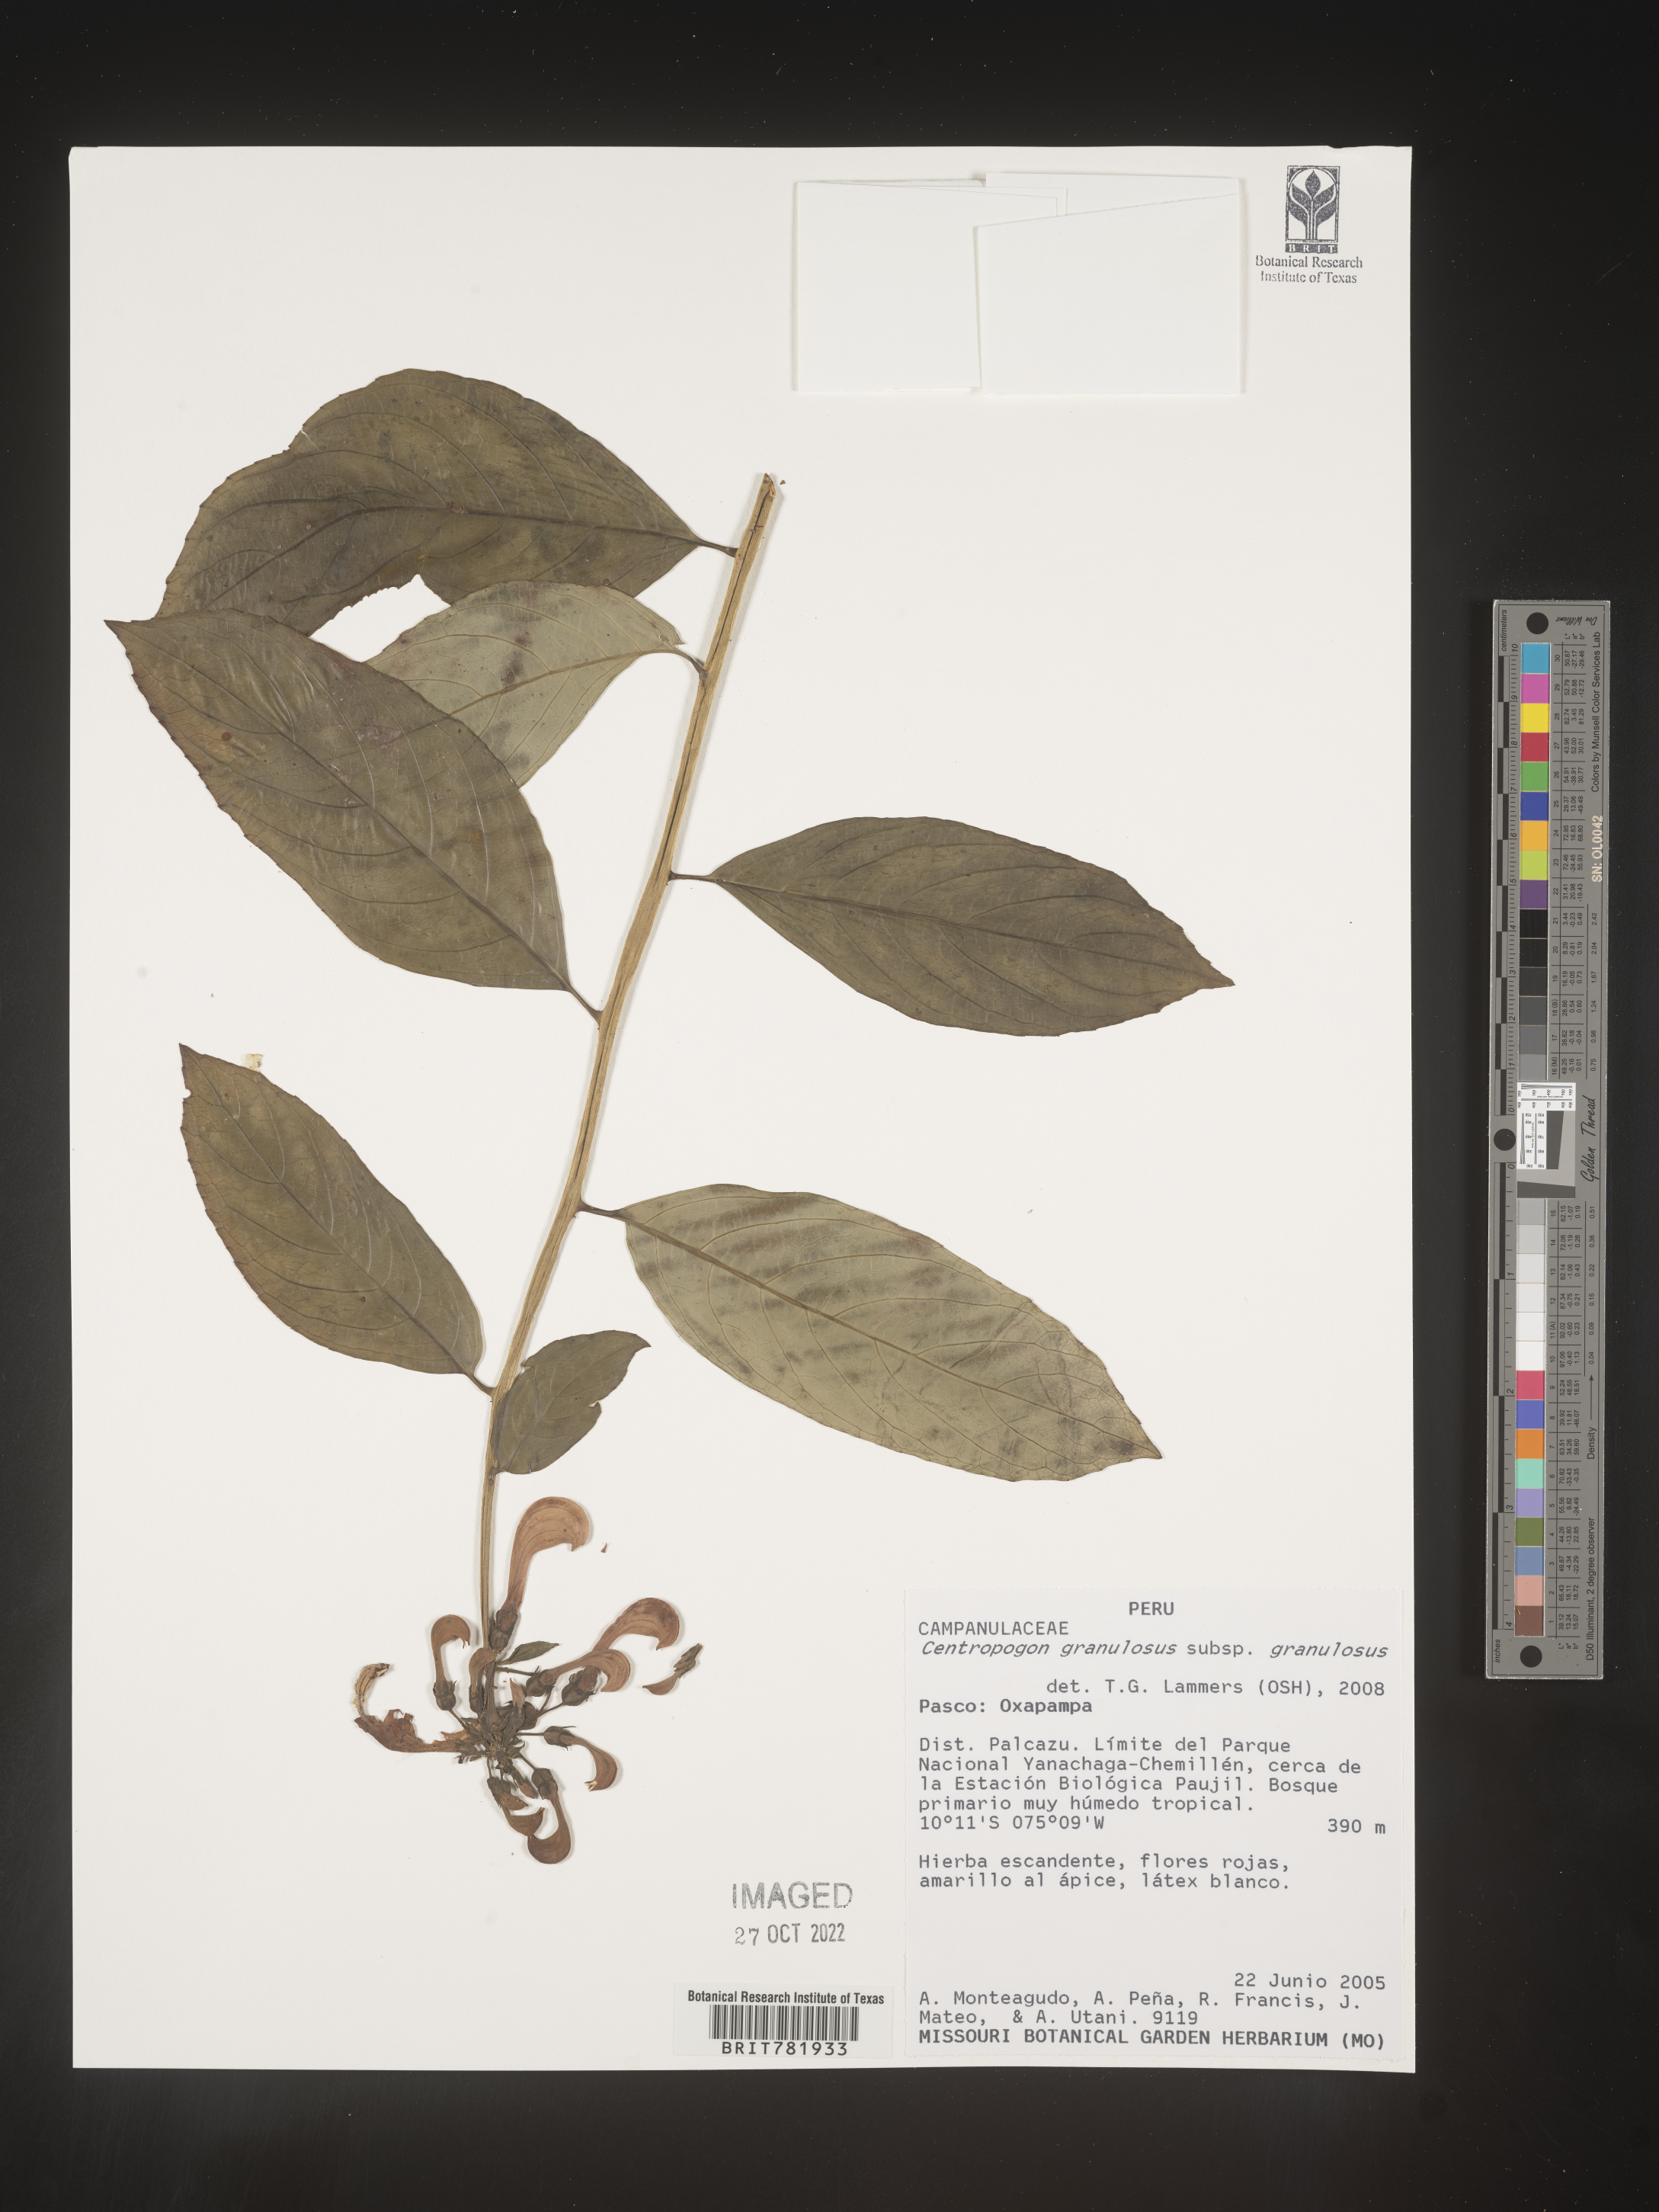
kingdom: Plantae
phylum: Tracheophyta
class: Magnoliopsida
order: Asterales
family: Campanulaceae
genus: Centropogon
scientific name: Centropogon
